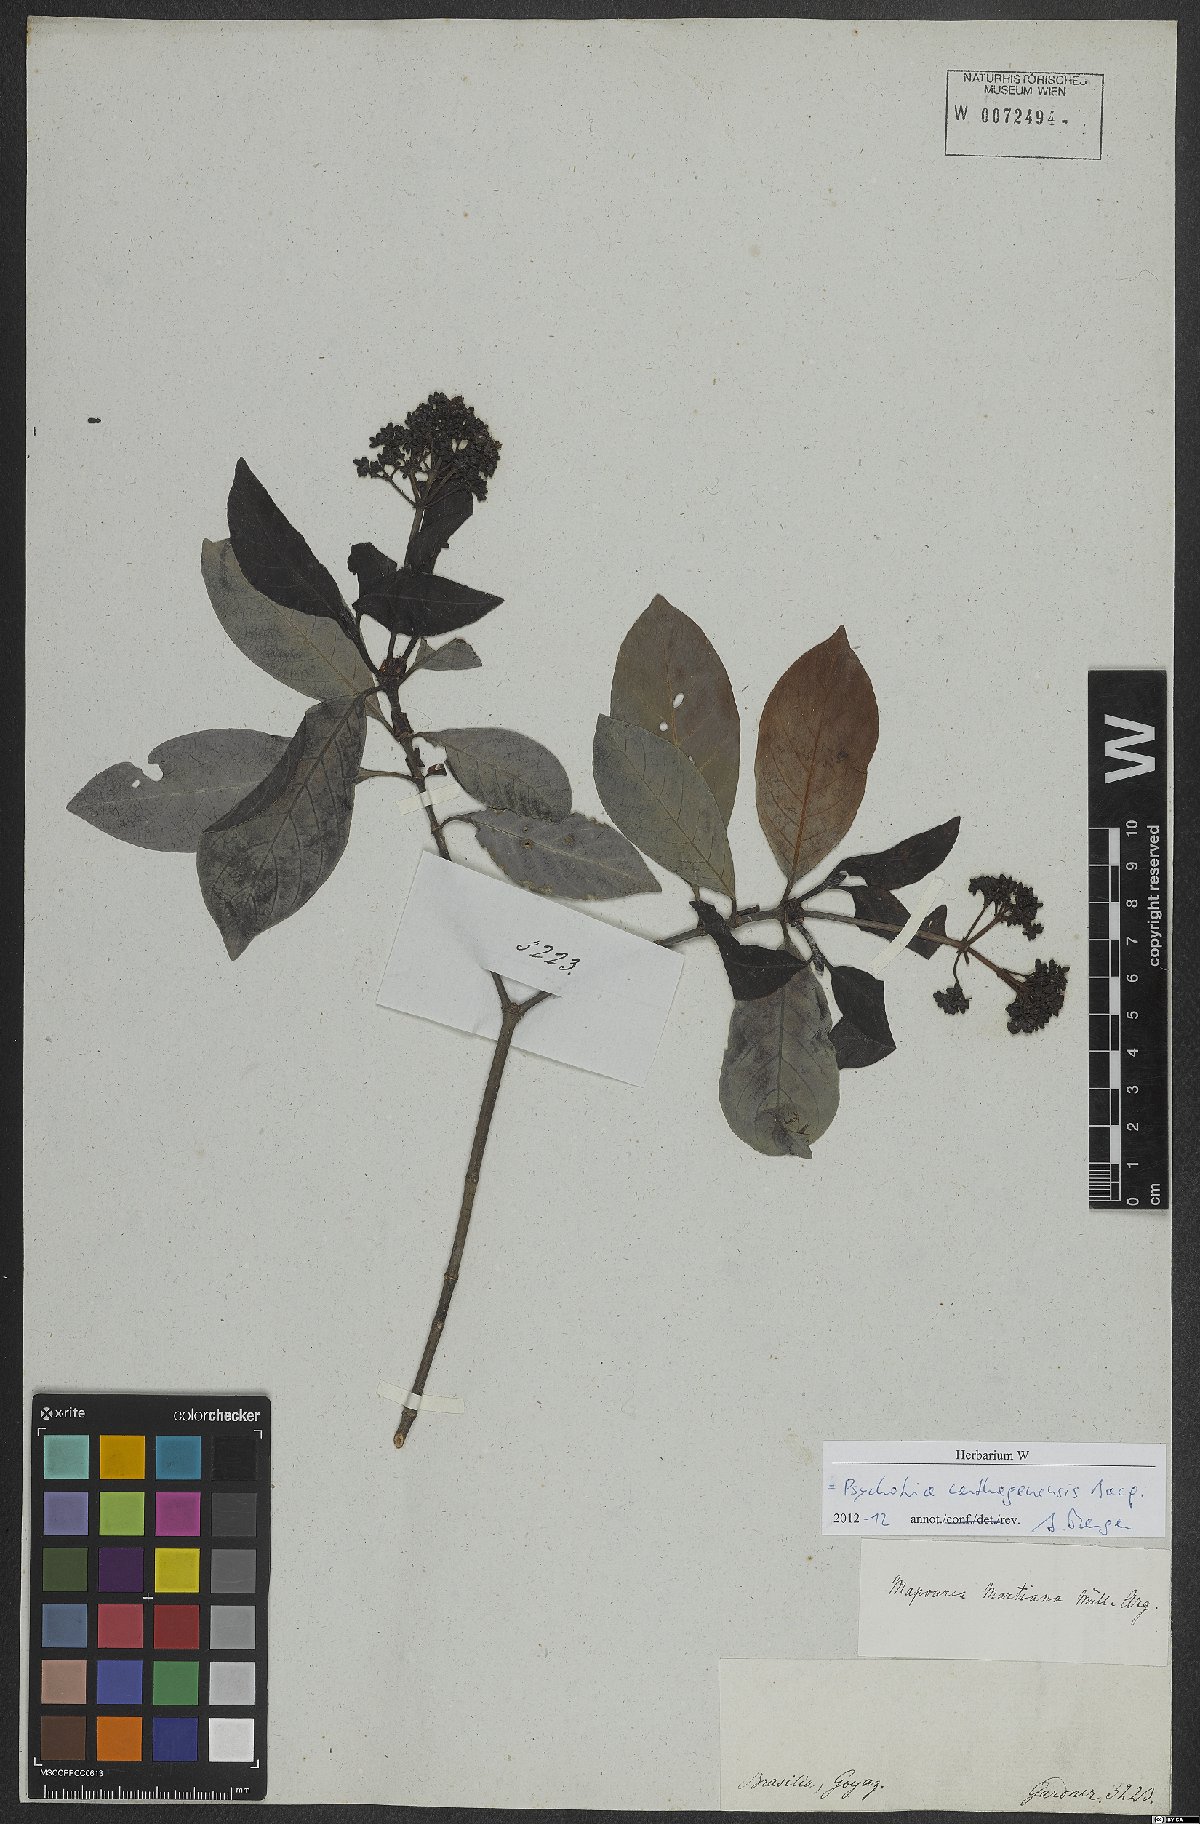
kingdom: Plantae
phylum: Tracheophyta
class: Magnoliopsida
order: Gentianales
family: Rubiaceae
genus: Psychotria
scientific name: Psychotria carthagenensis
